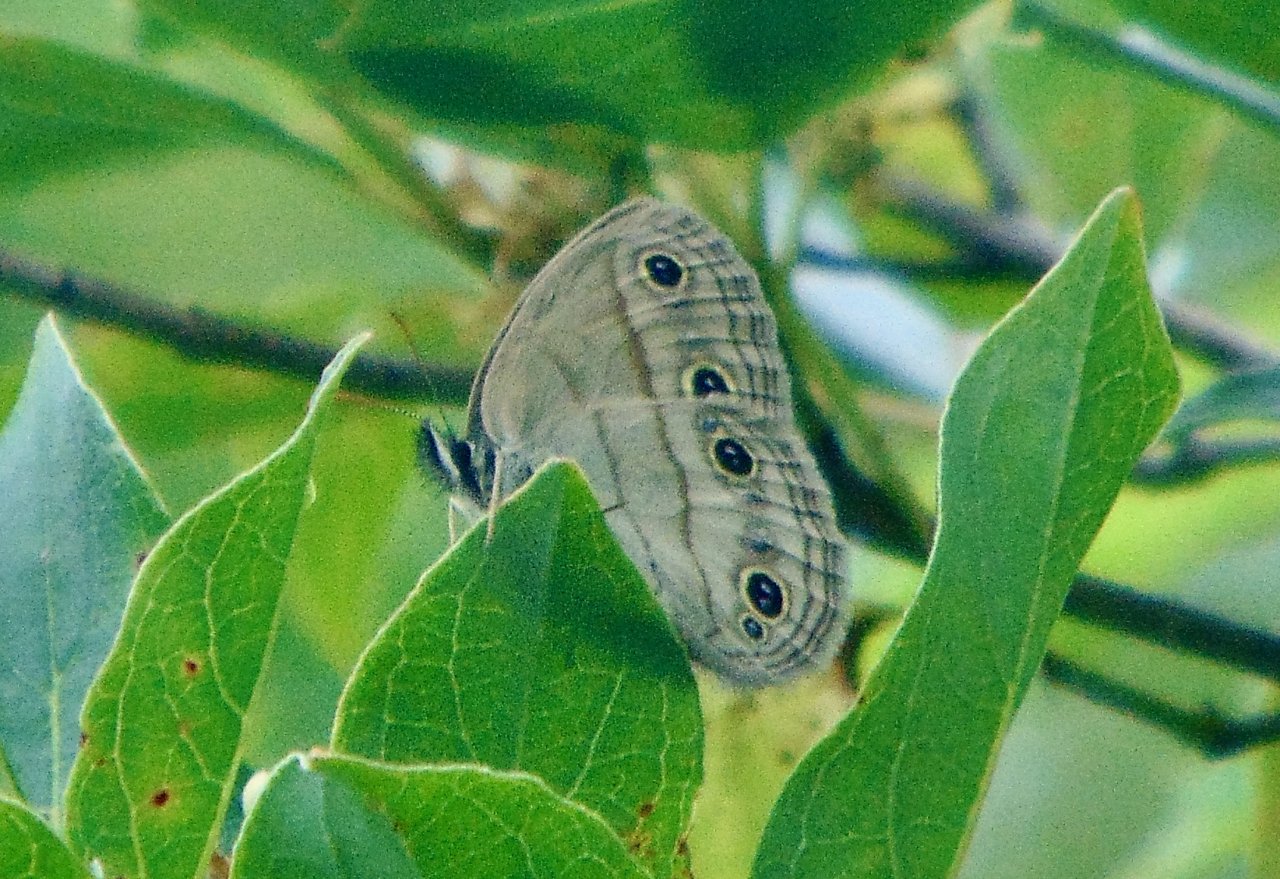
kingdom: Animalia
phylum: Arthropoda
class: Insecta
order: Lepidoptera
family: Nymphalidae
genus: Euptychia
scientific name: Euptychia cymela
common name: Little Wood Satyr
